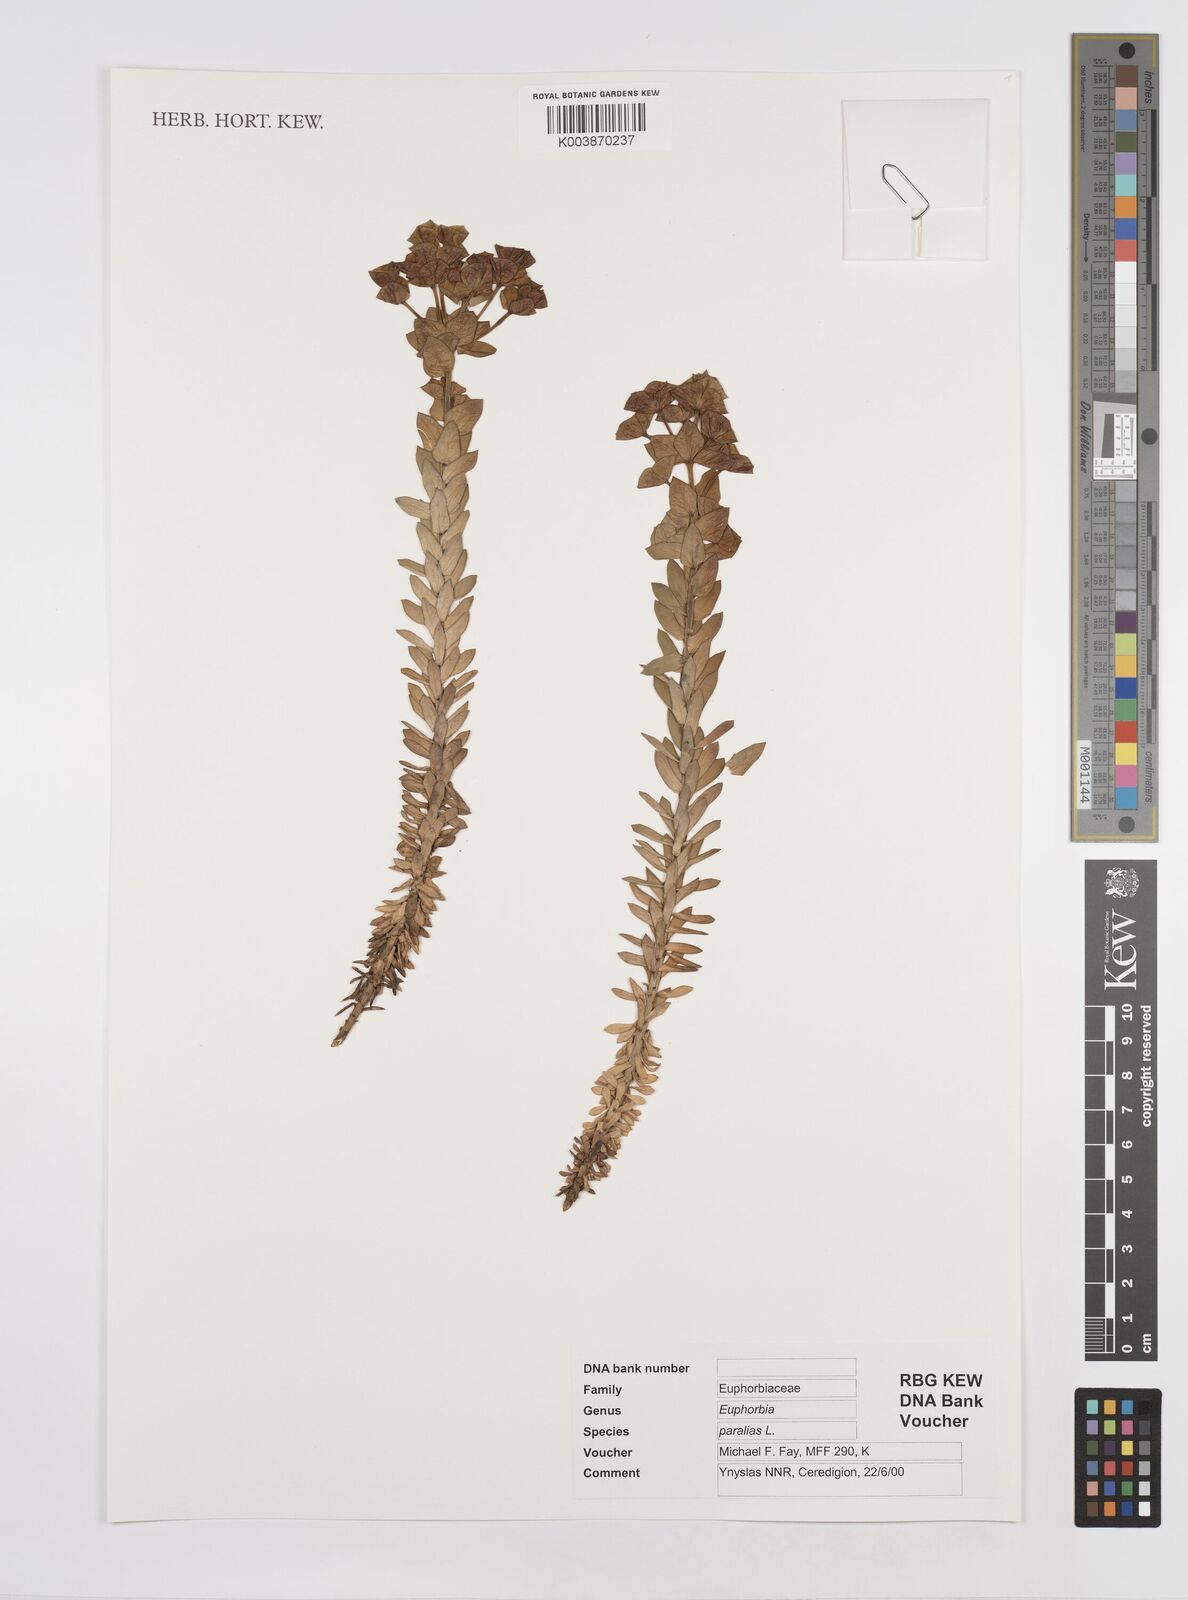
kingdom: Plantae
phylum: Tracheophyta
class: Magnoliopsida
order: Malpighiales
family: Euphorbiaceae
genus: Euphorbia
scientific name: Euphorbia paralias
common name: Sea spurge
